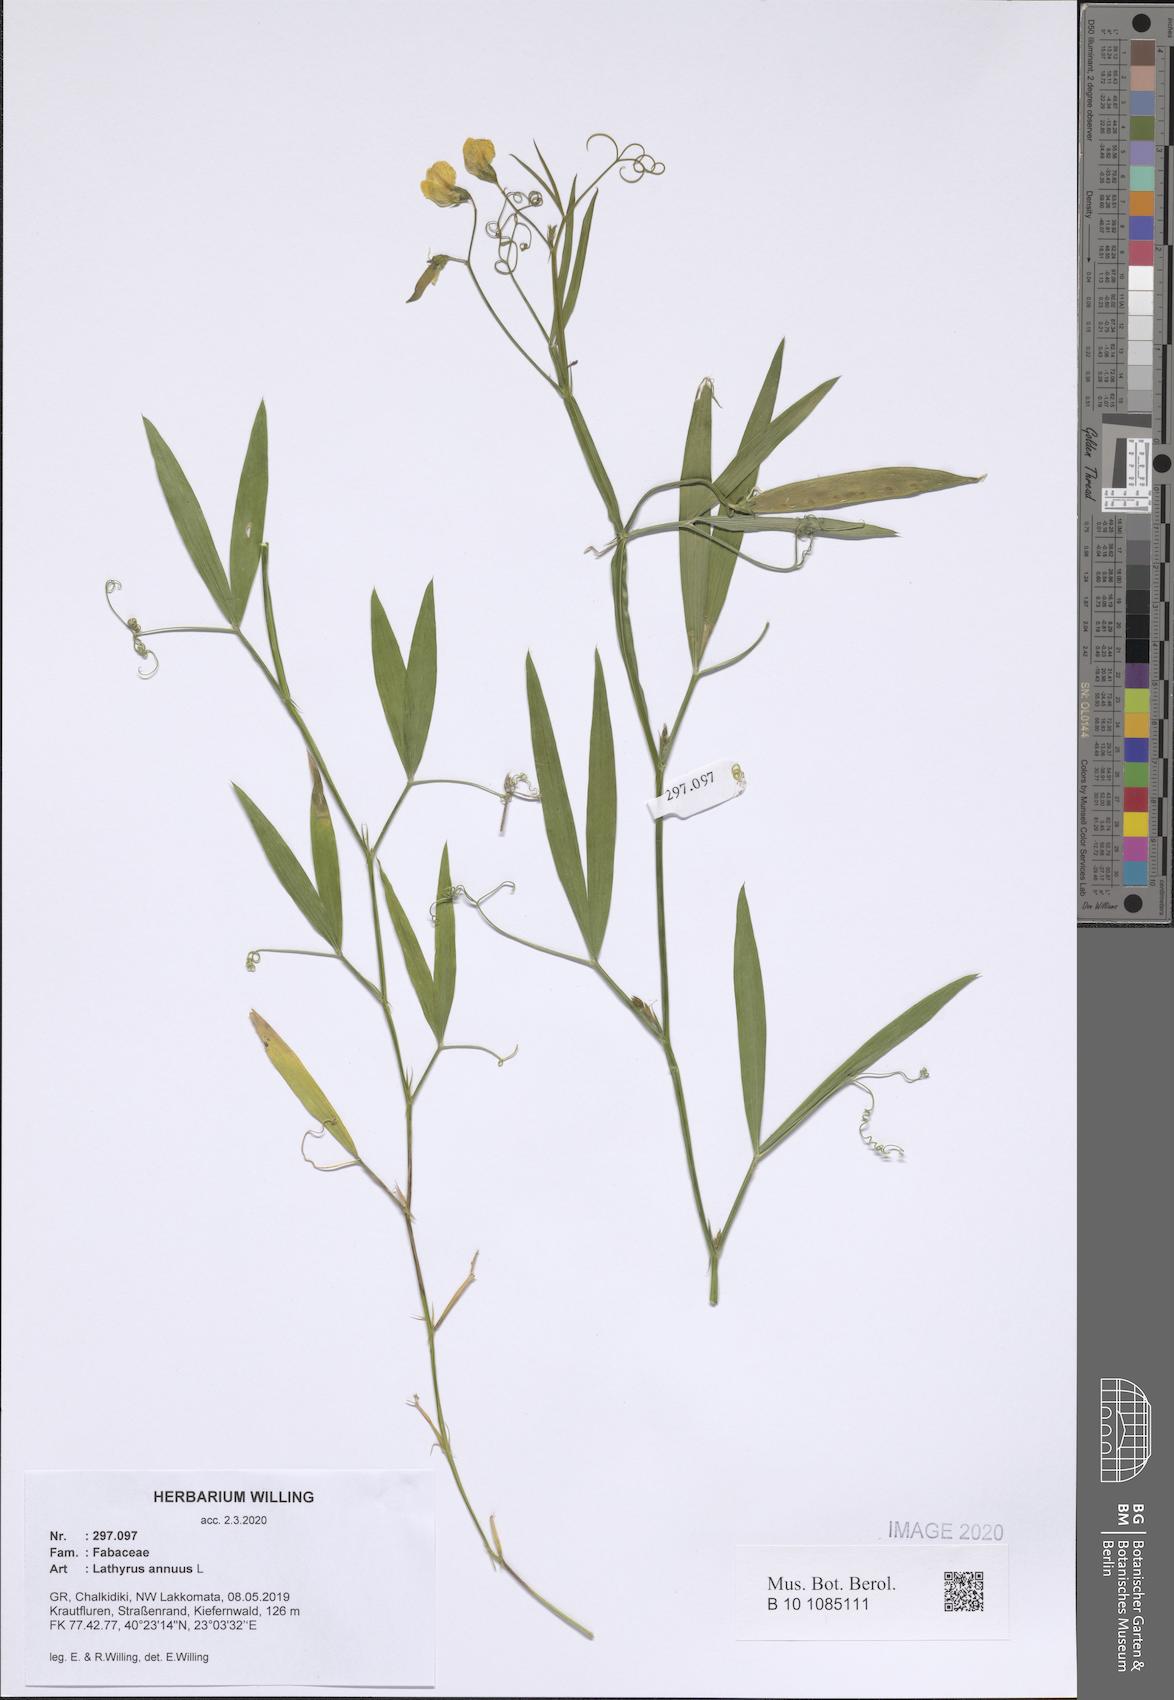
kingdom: Plantae
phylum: Tracheophyta
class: Magnoliopsida
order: Fabales
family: Fabaceae
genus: Lathyrus
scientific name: Lathyrus annuus
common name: Fodder pea
